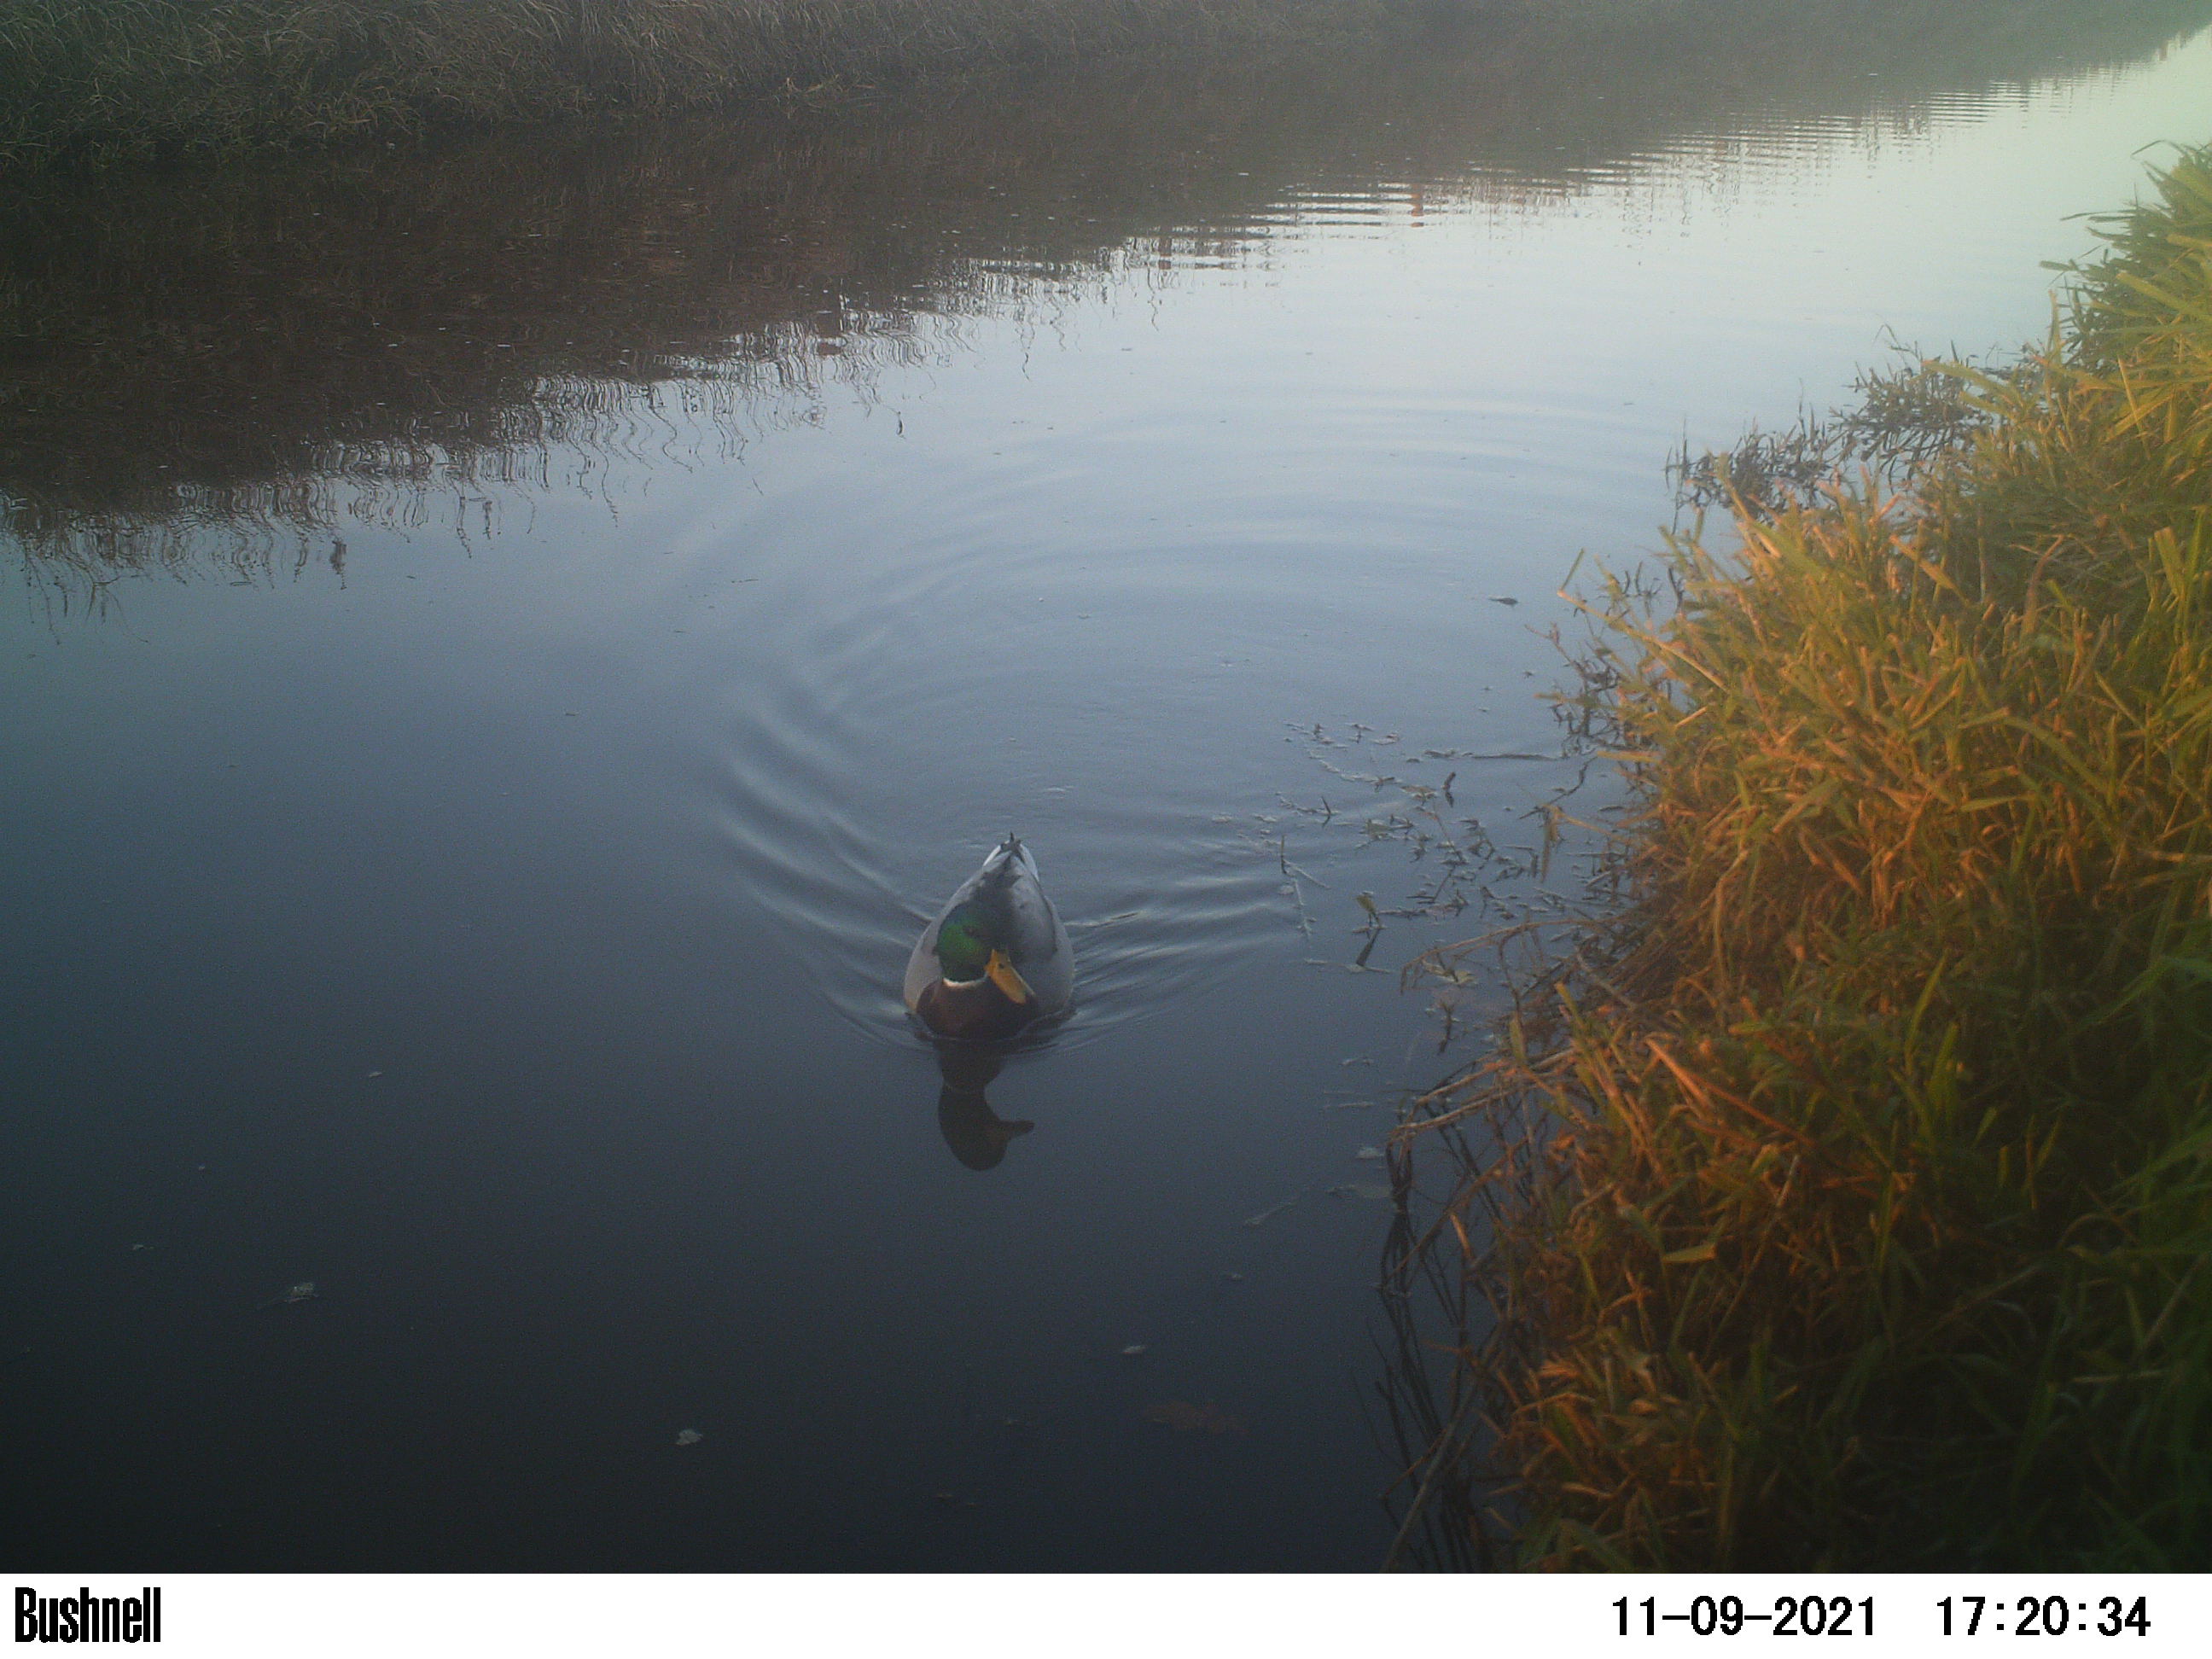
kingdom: Animalia
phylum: Chordata
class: Aves
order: Anseriformes
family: Anatidae
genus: Anas
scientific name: Anas
